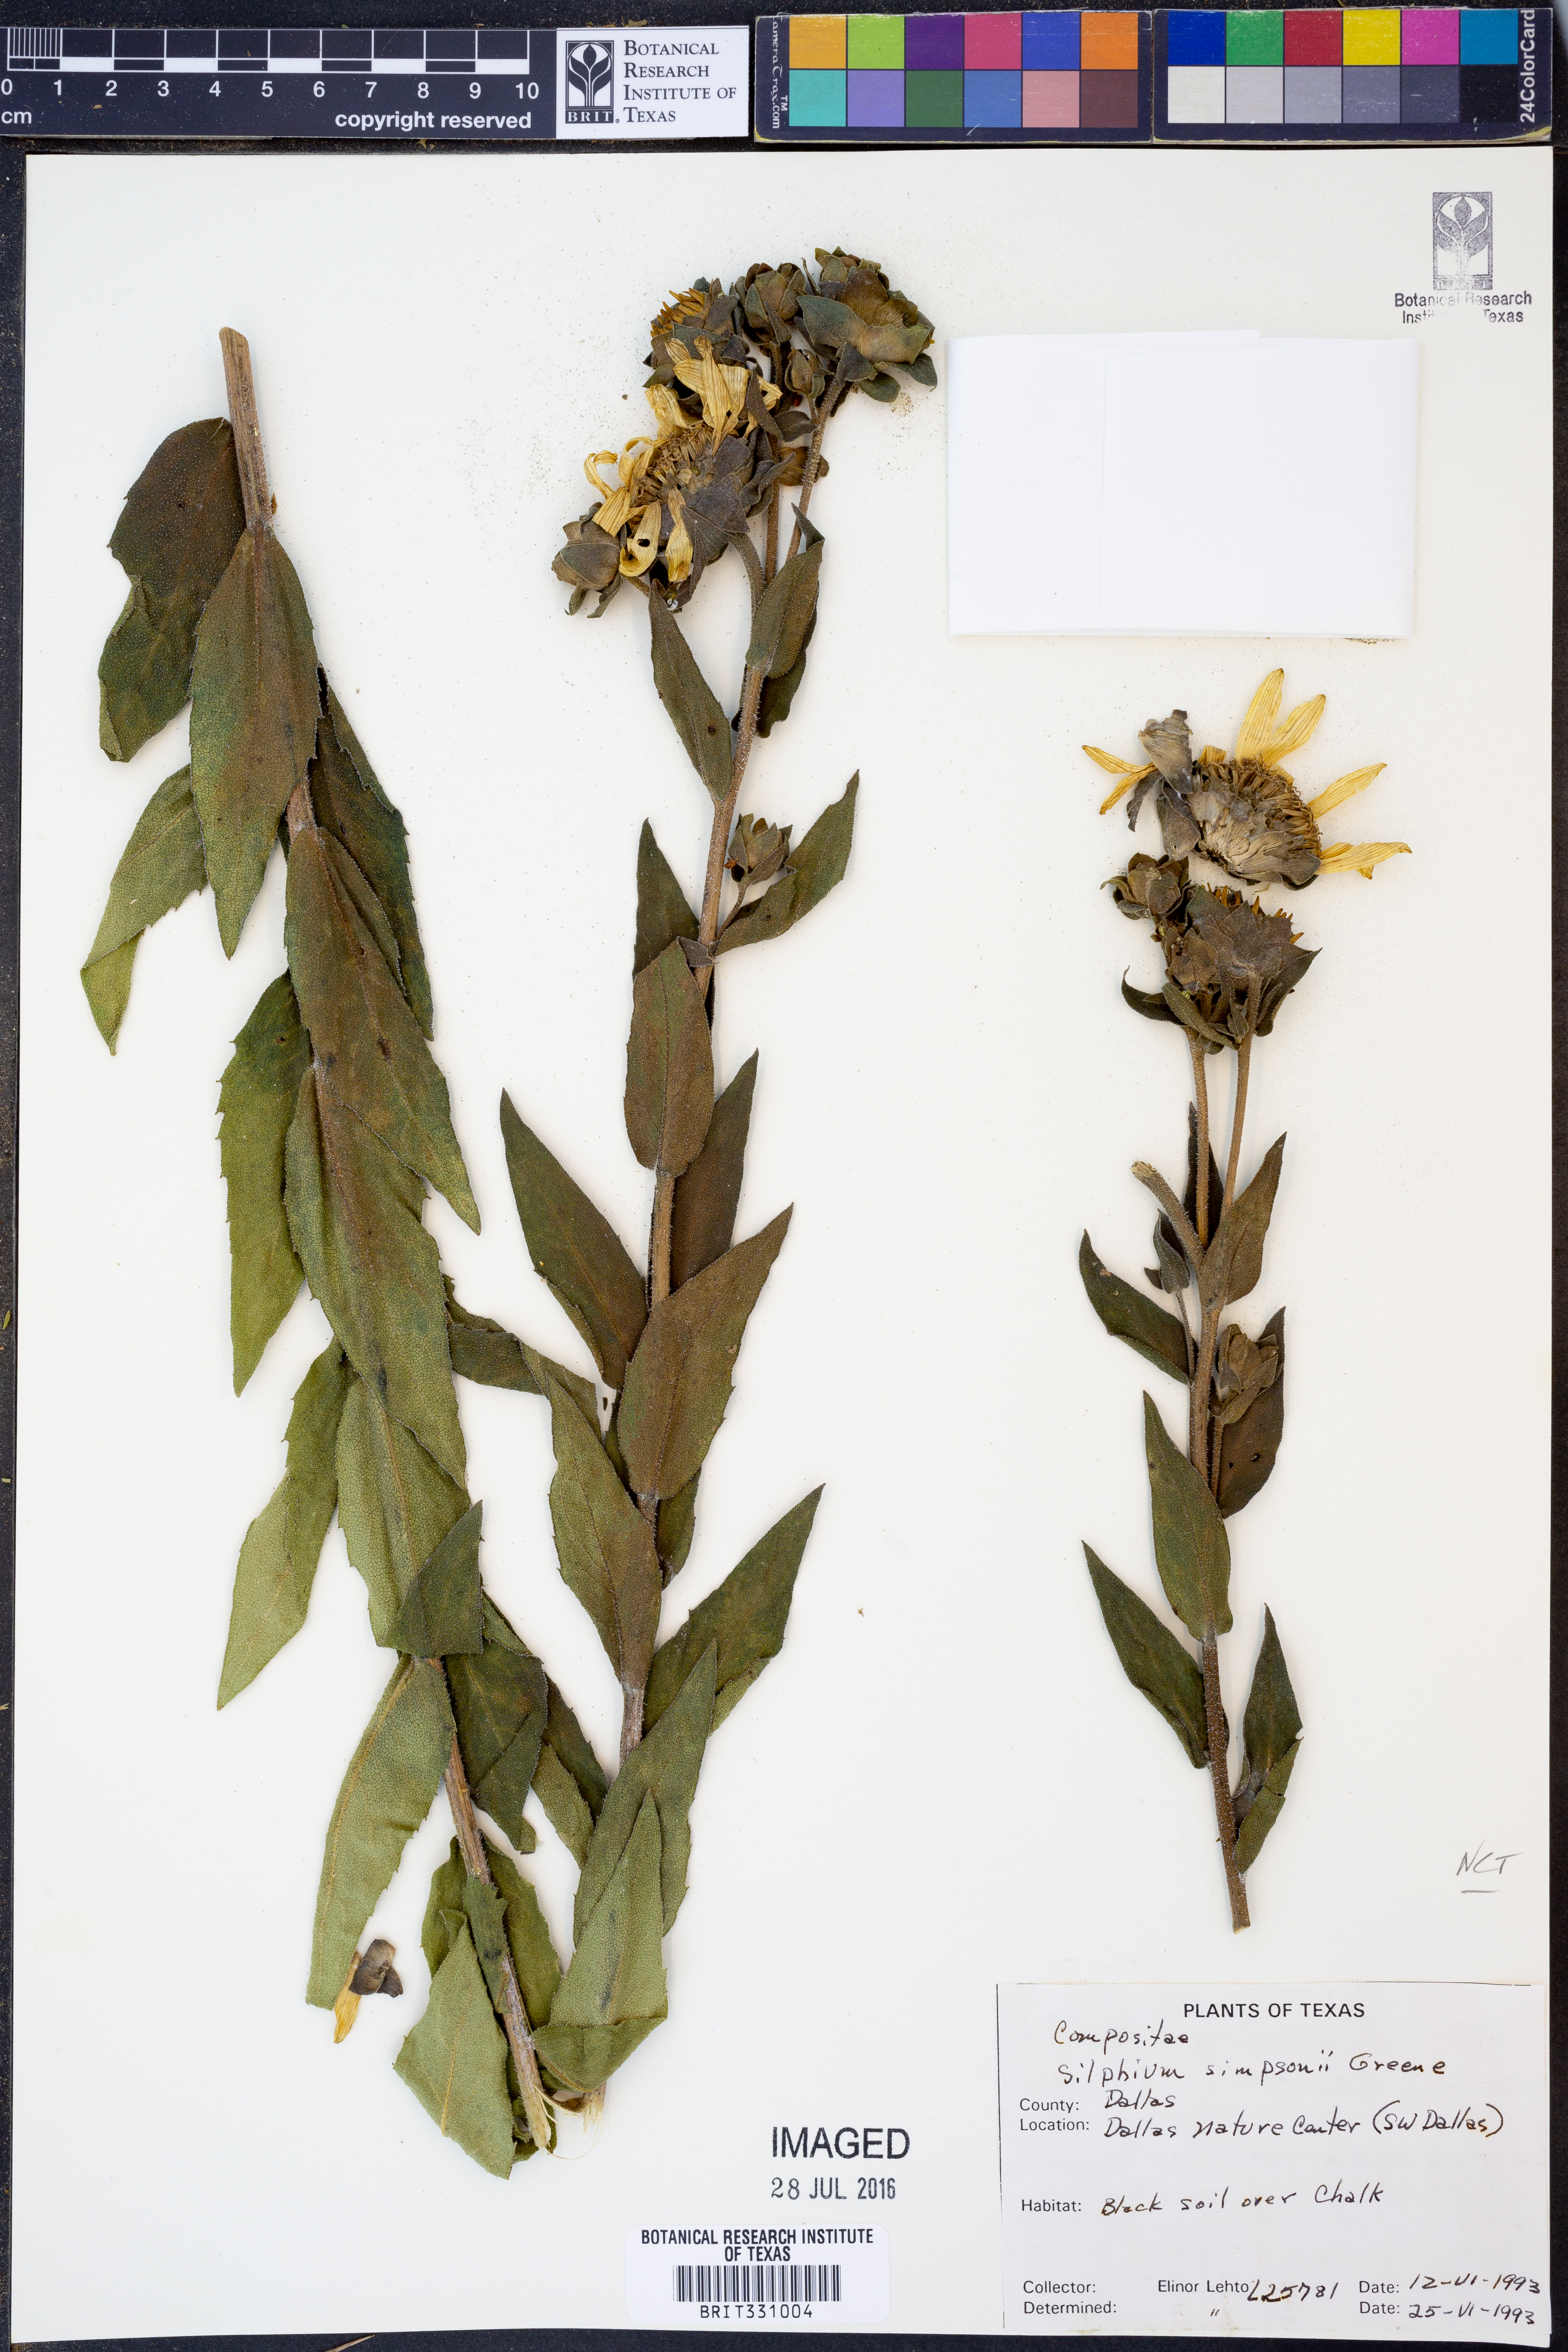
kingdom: Plantae
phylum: Tracheophyta
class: Magnoliopsida
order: Asterales
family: Asteraceae
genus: Silphium
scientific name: Silphium asteriscus
